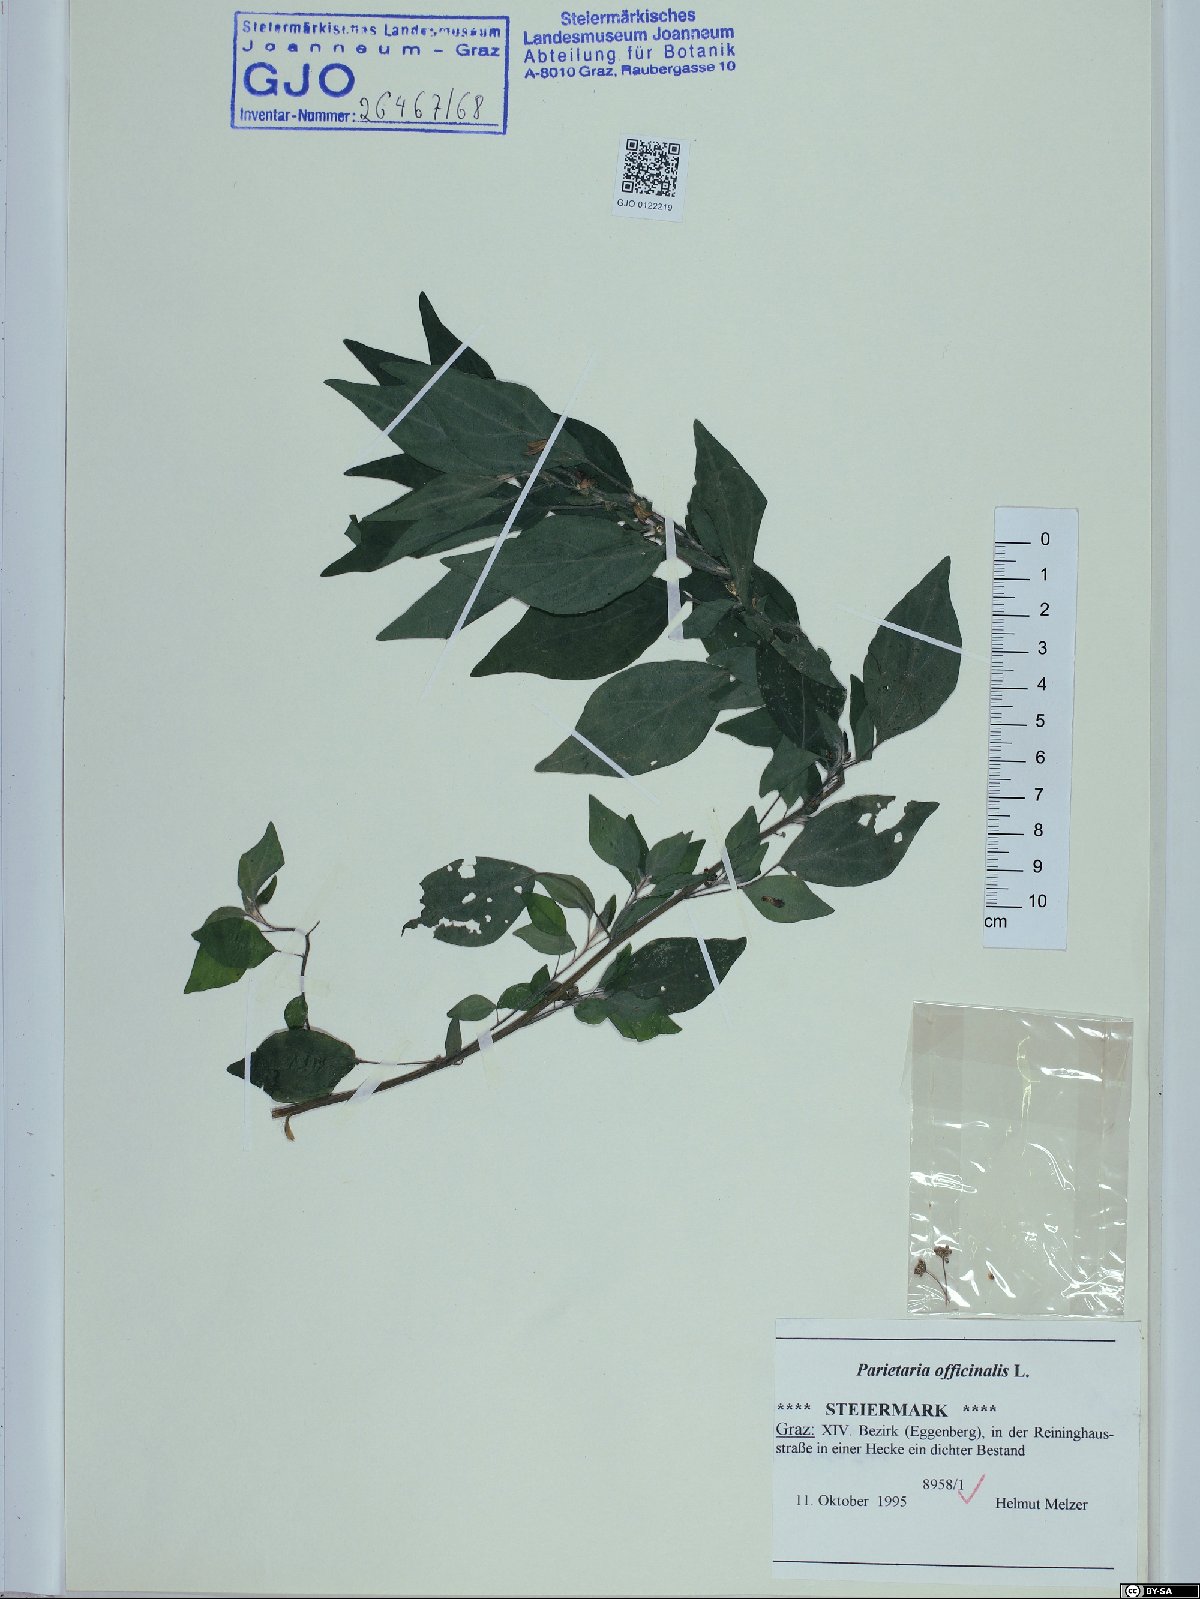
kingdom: Plantae
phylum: Tracheophyta
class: Magnoliopsida
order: Rosales
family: Urticaceae
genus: Parietaria
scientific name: Parietaria officinalis
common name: Eastern pellitory-of-the-wall
